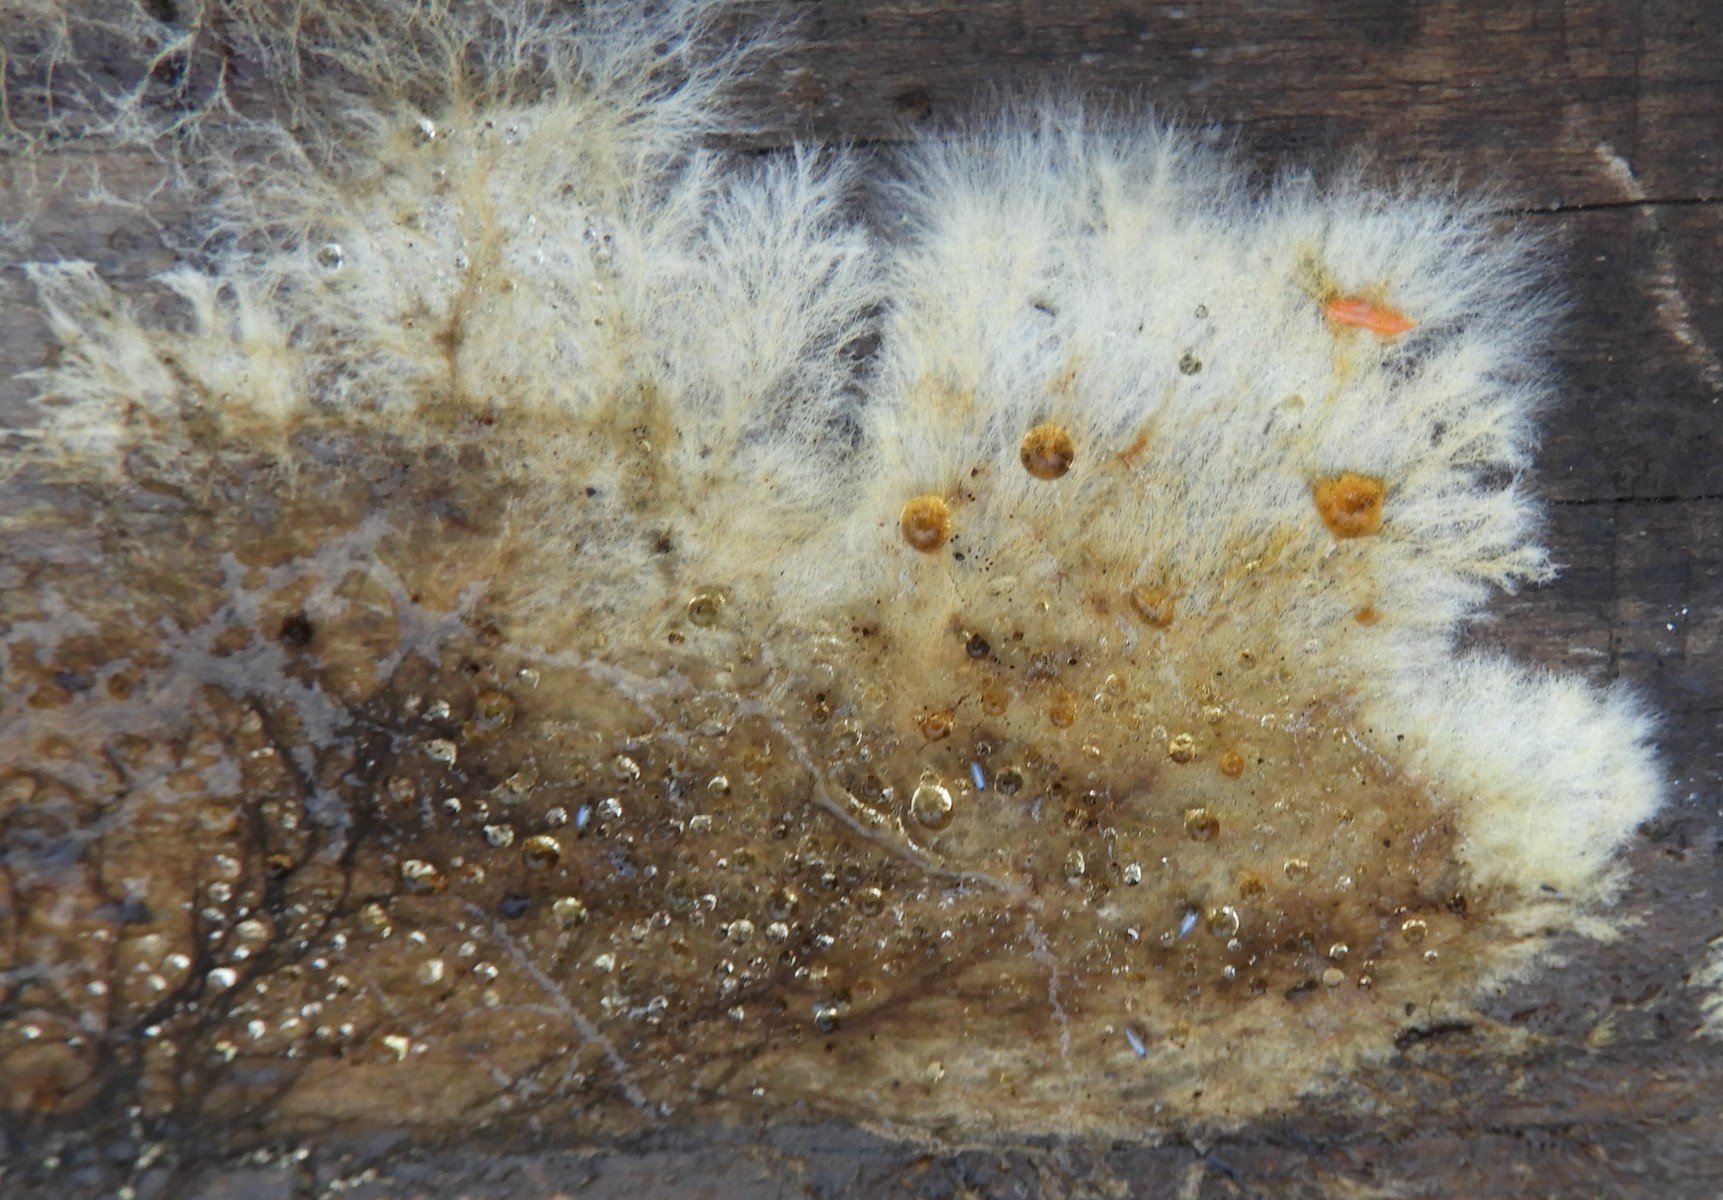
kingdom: Fungi
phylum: Basidiomycota
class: Agaricomycetes
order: Corticiales
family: Corticiaceae
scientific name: Corticiaceae
